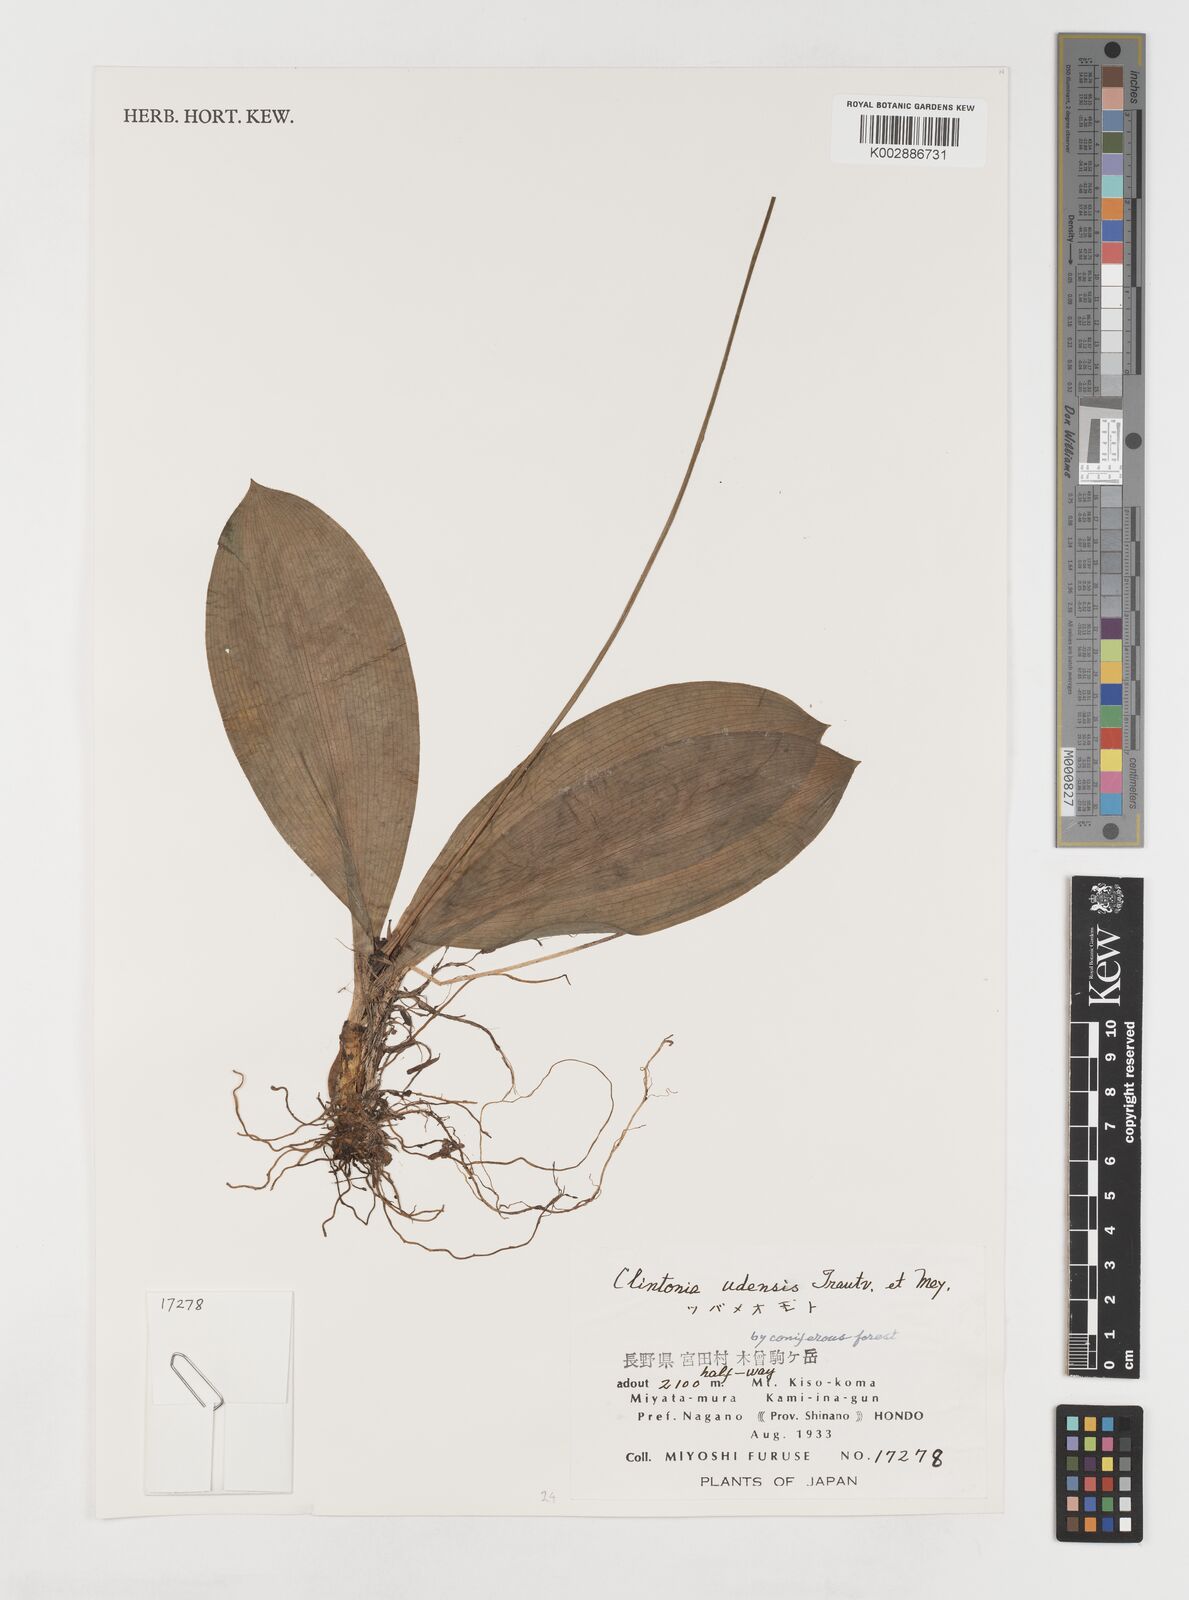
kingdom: Plantae
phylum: Tracheophyta
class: Liliopsida
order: Liliales
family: Liliaceae
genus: Clintonia
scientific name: Clintonia udensis
